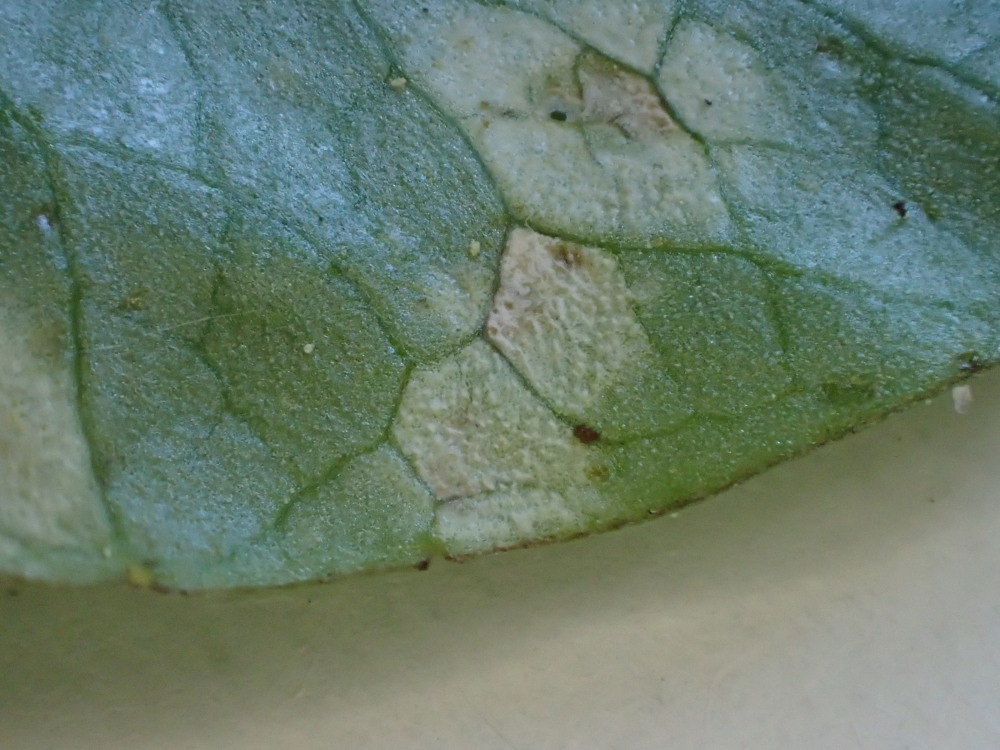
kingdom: Fungi
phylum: Basidiomycota
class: Exobasidiomycetes
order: Entylomatales
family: Entylomataceae
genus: Entyloma
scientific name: Entyloma ficariae
